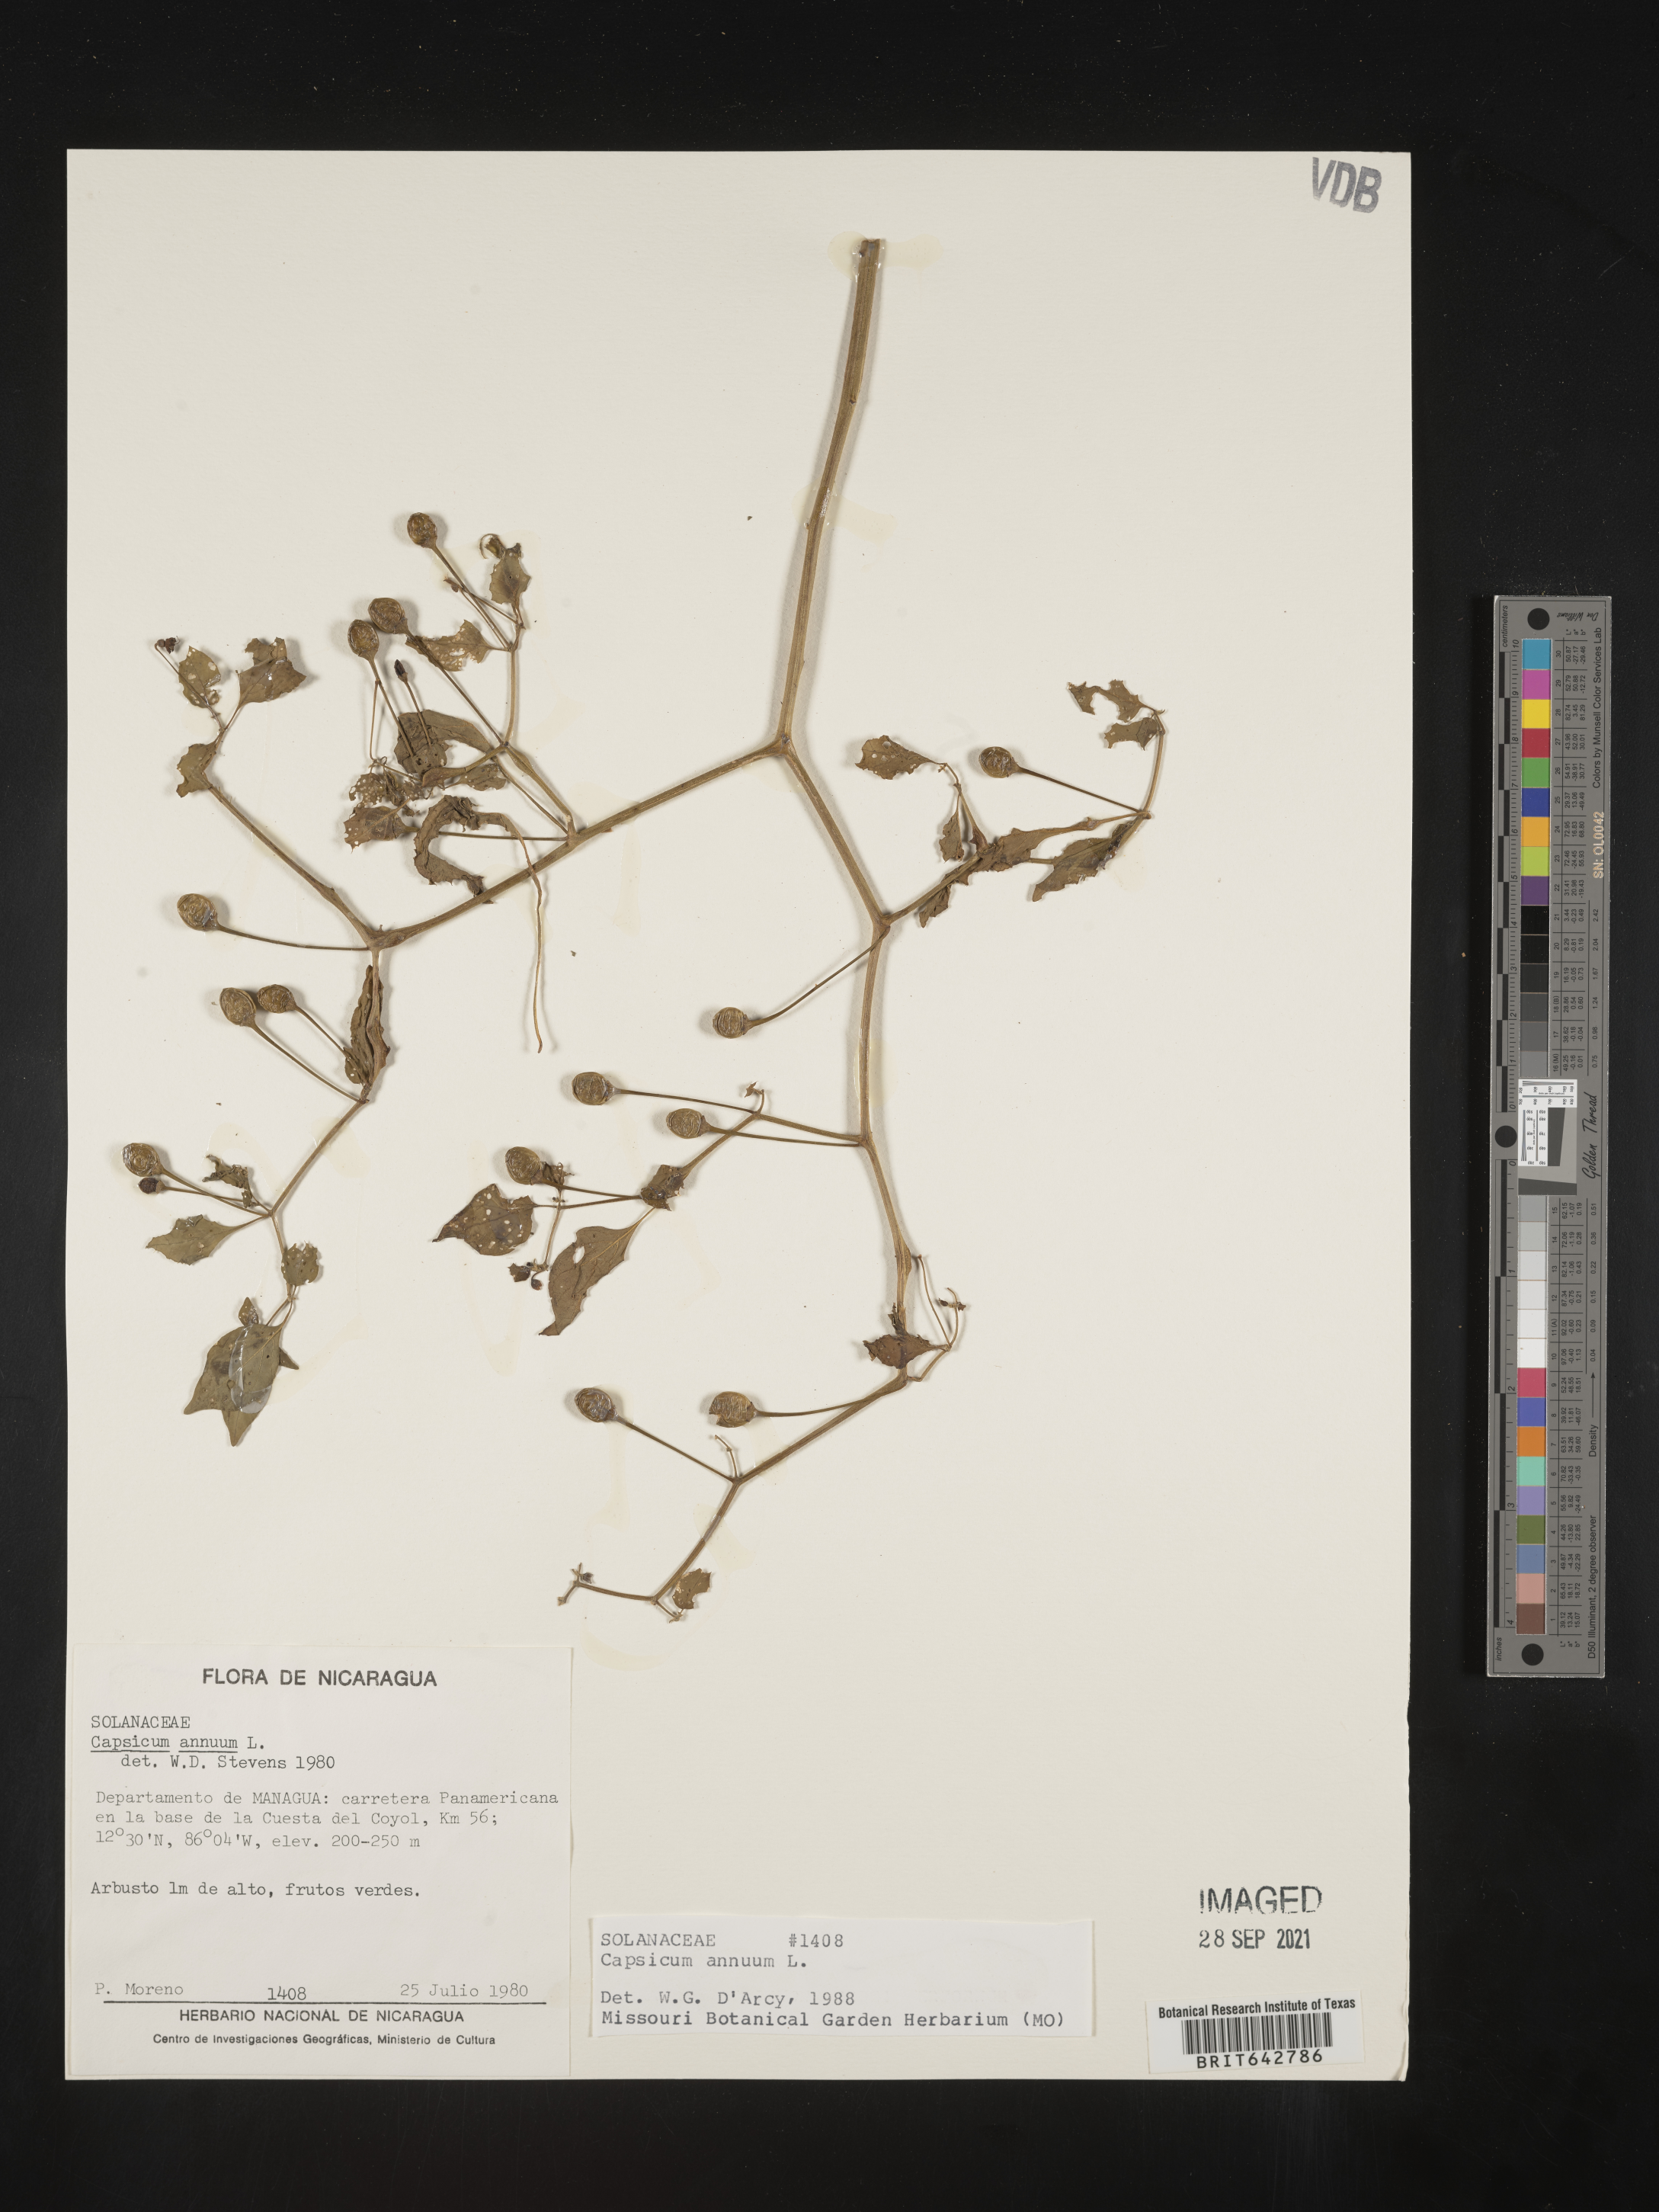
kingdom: Plantae
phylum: Tracheophyta
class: Magnoliopsida
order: Solanales
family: Solanaceae
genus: Capsicum
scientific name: Capsicum
